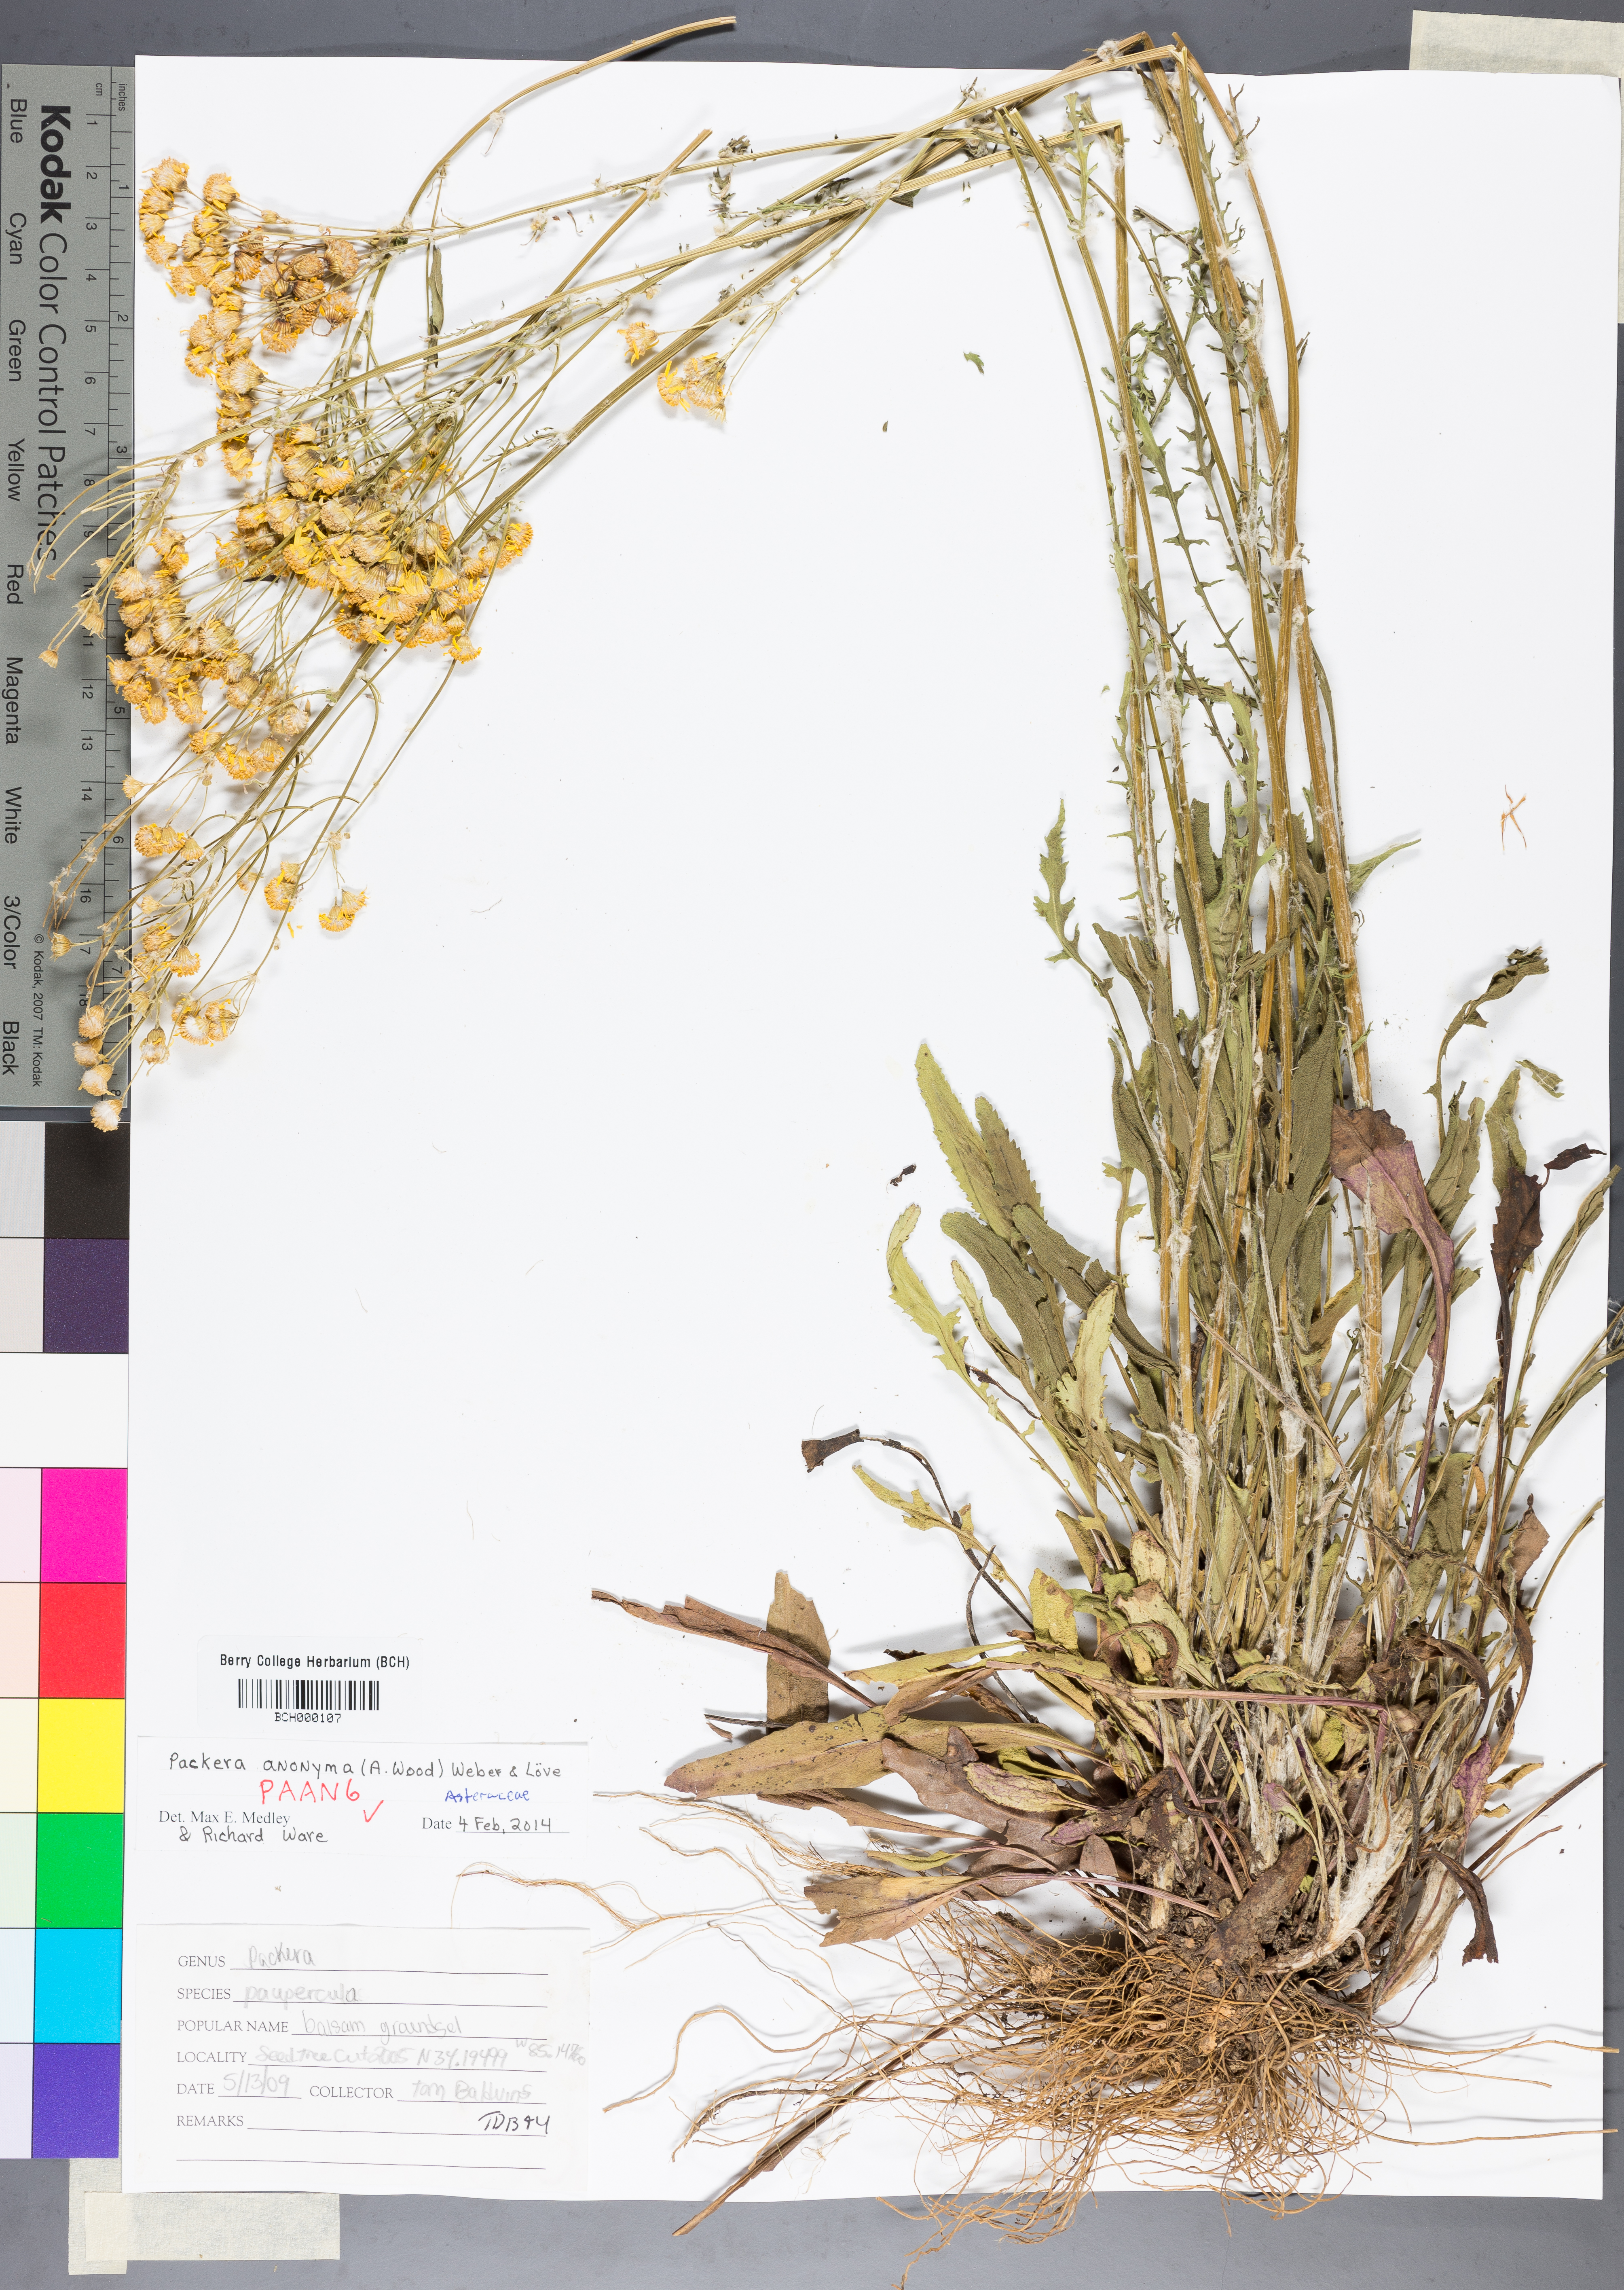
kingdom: Plantae
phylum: Tracheophyta
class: Magnoliopsida
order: Asterales
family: Asteraceae
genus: Packera
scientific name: Packera anonyma
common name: Small ragwort
